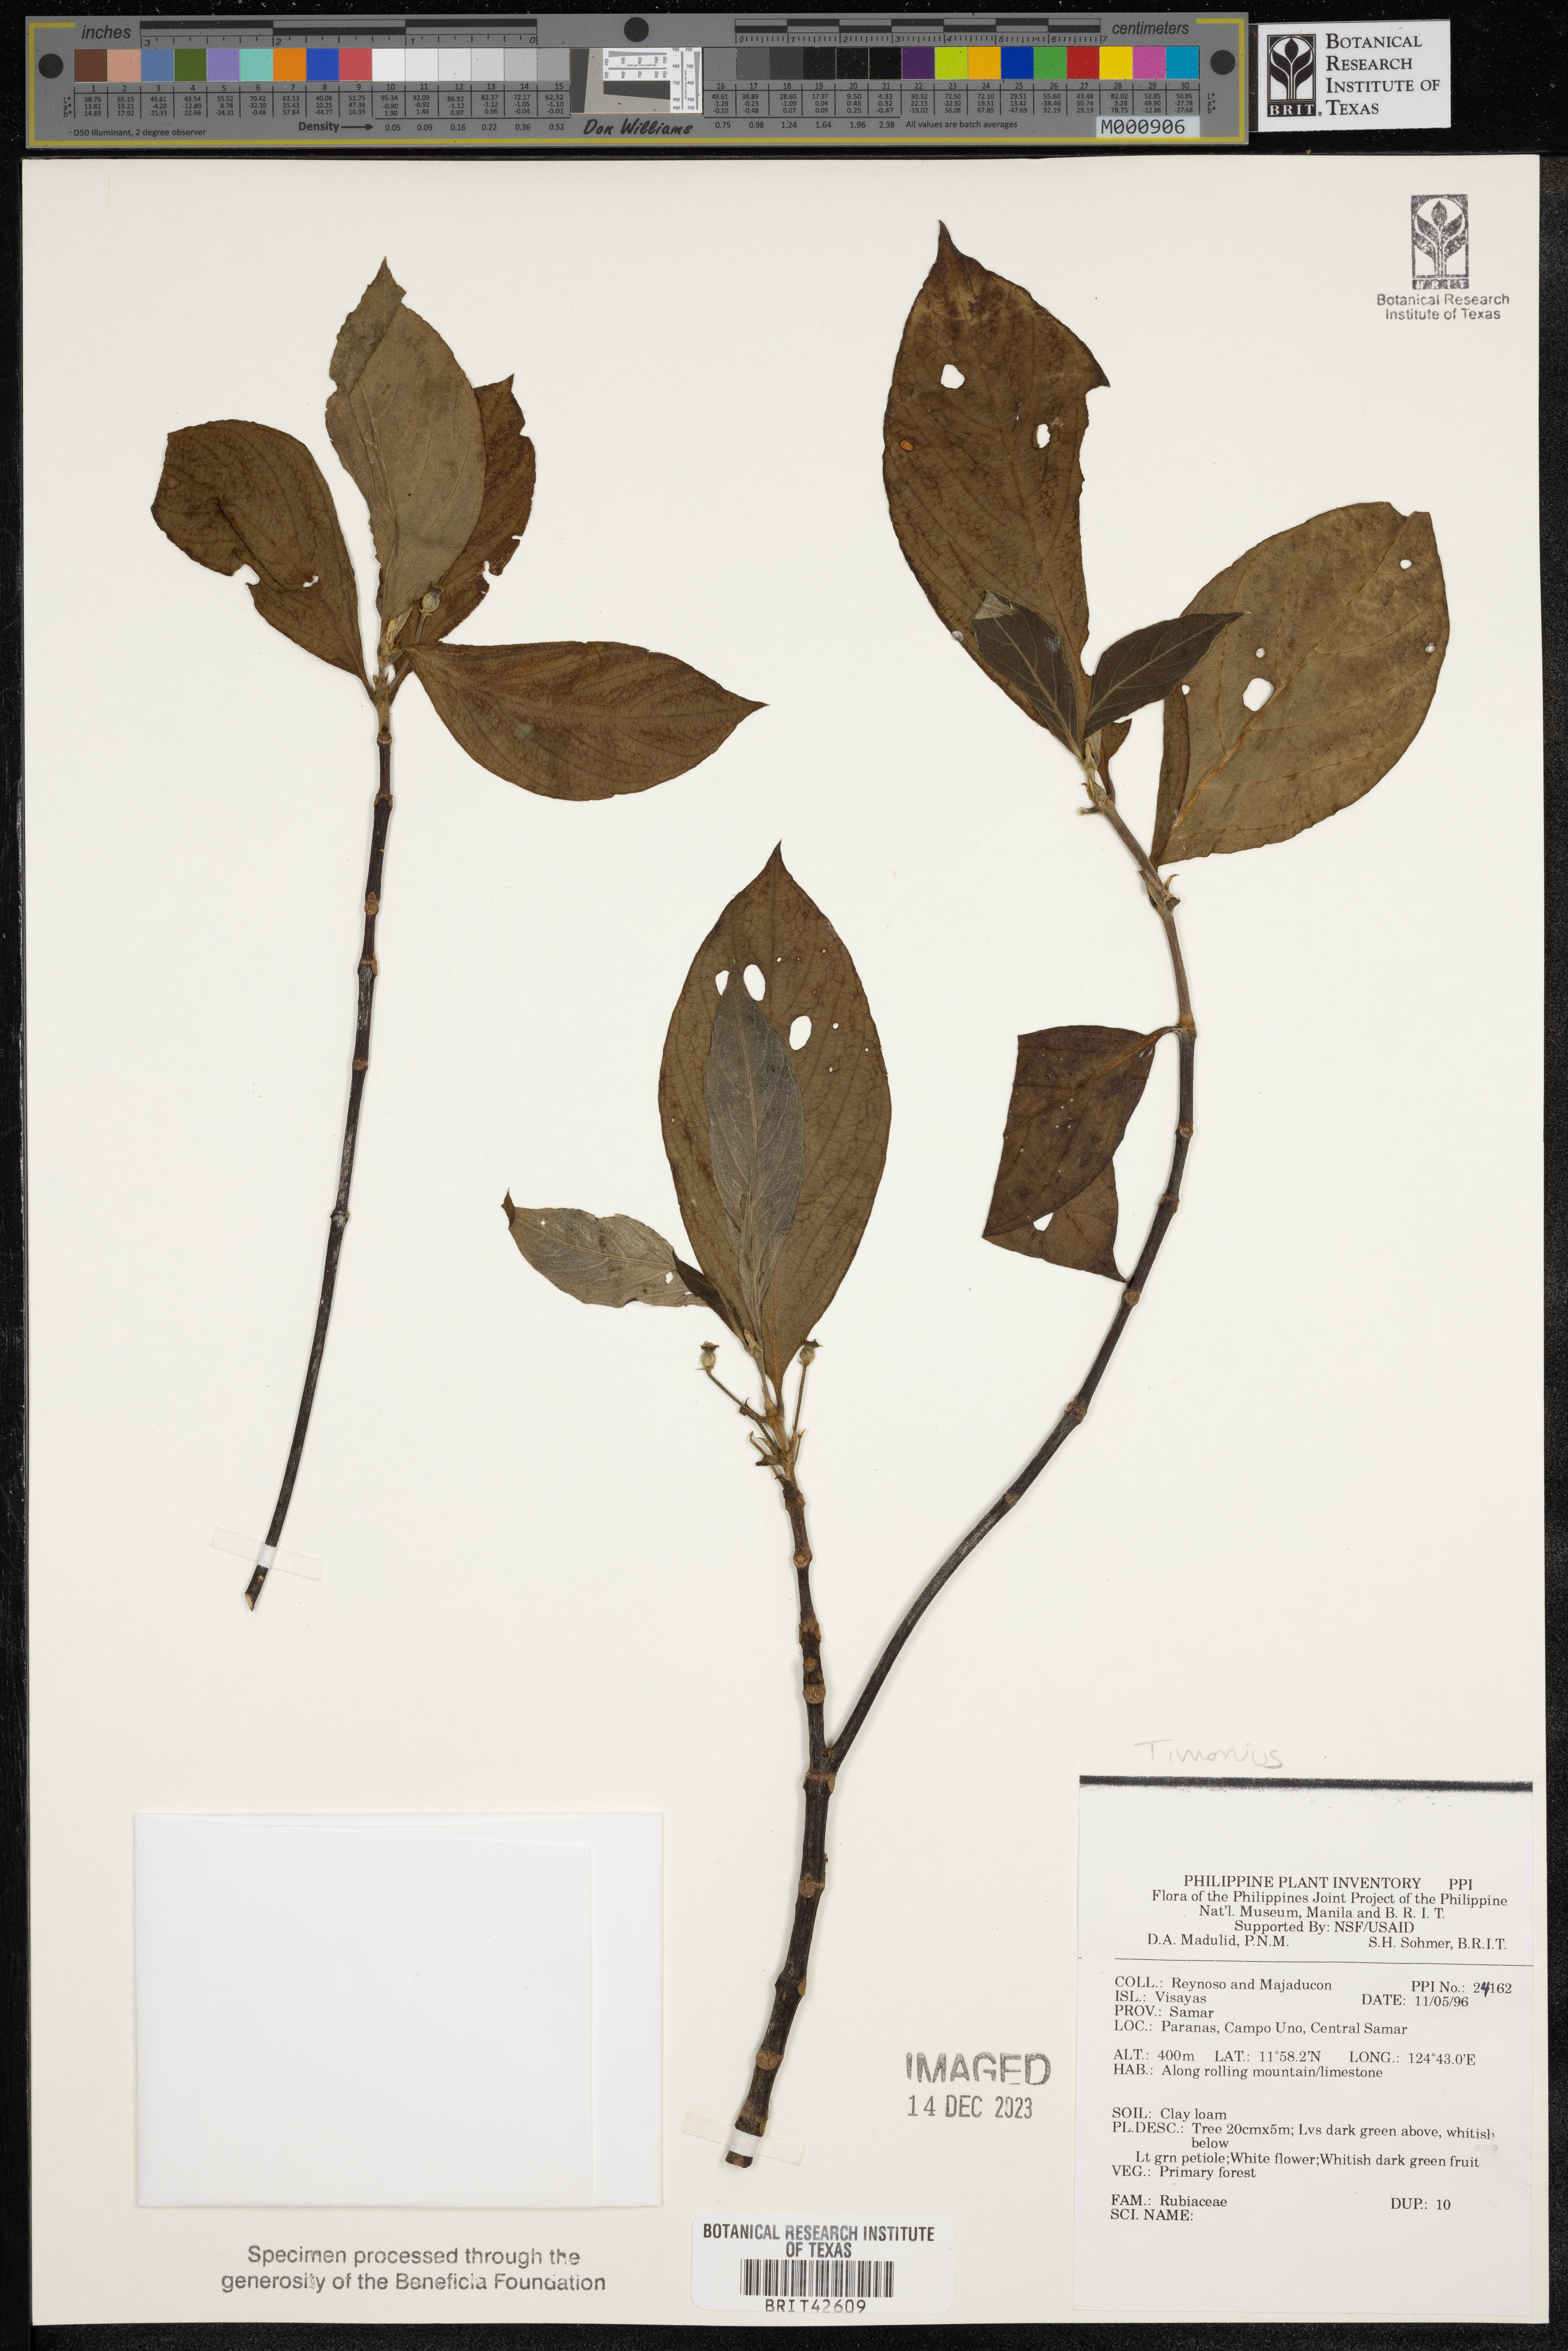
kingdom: Plantae
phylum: Tracheophyta
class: Magnoliopsida
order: Gentianales
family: Rubiaceae
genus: Timonius
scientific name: Timonius
